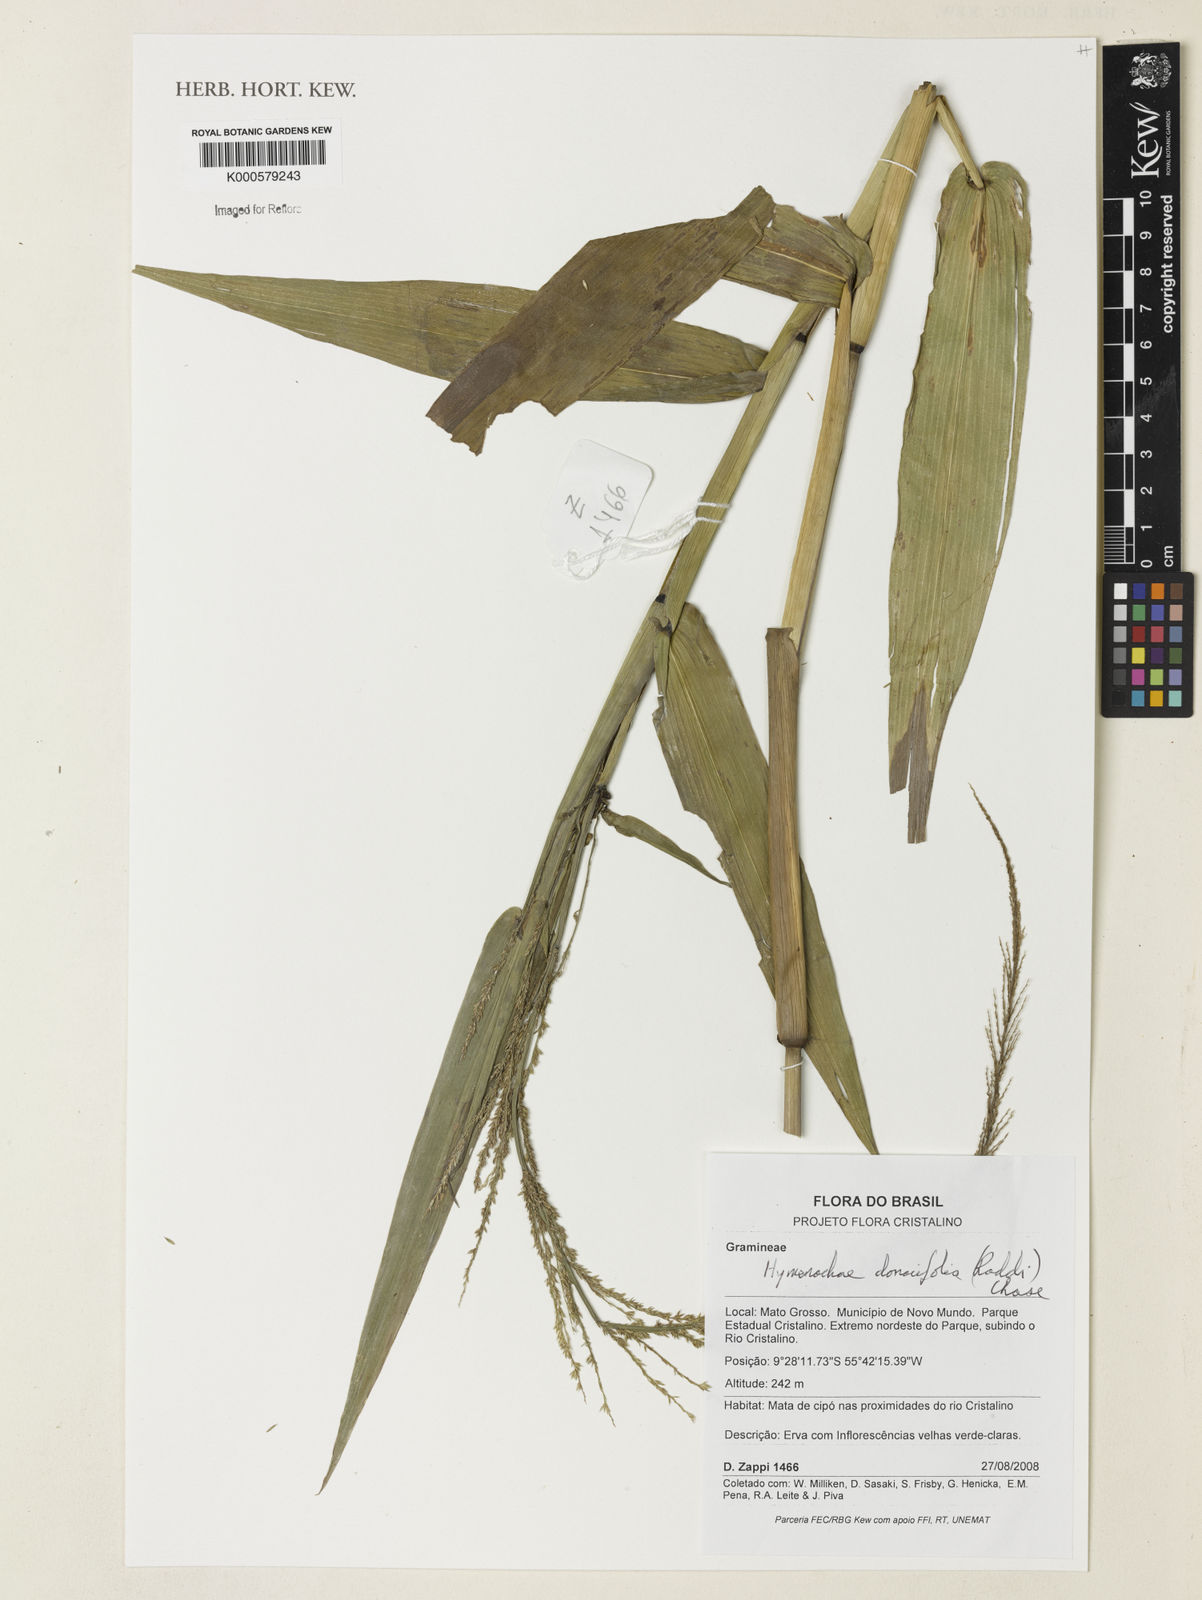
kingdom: Plantae
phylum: Tracheophyta
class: Liliopsida
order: Poales
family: Poaceae
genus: Hymenachne
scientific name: Hymenachne donacifolia
